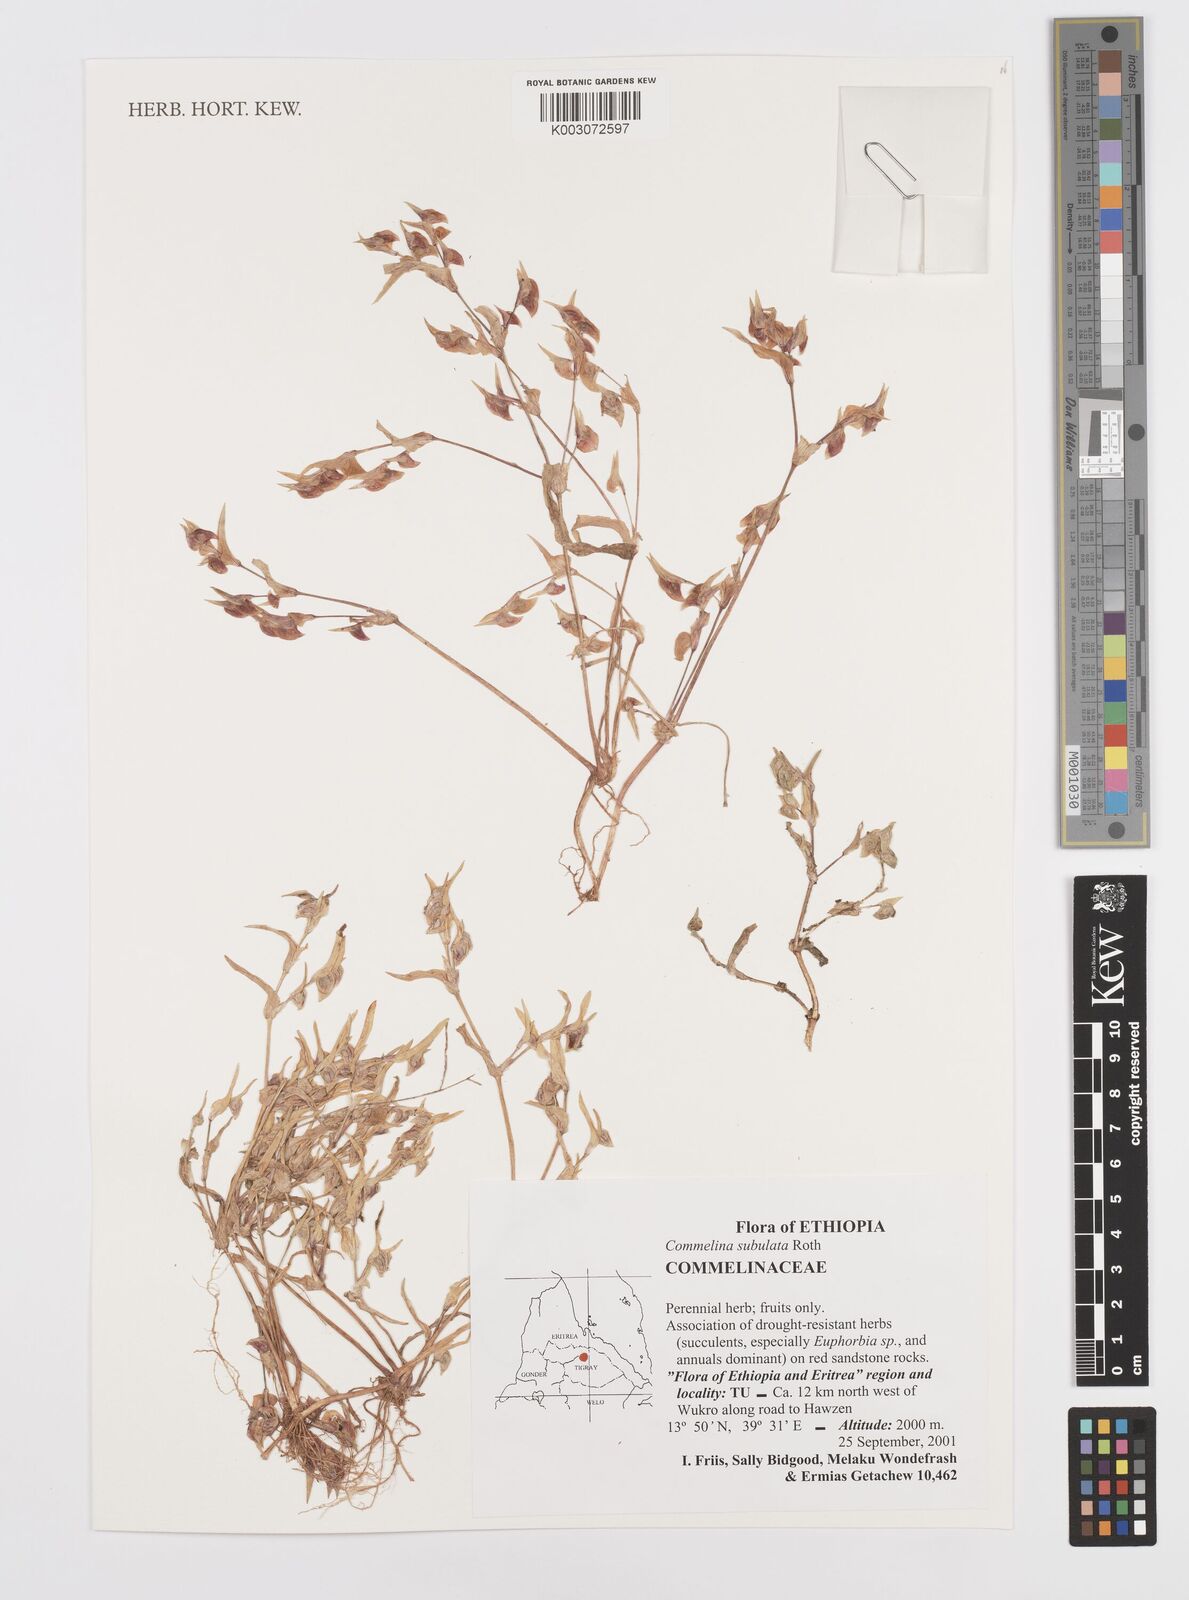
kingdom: Plantae
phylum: Tracheophyta
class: Liliopsida
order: Commelinales
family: Commelinaceae
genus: Commelina
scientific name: Commelina subulata
